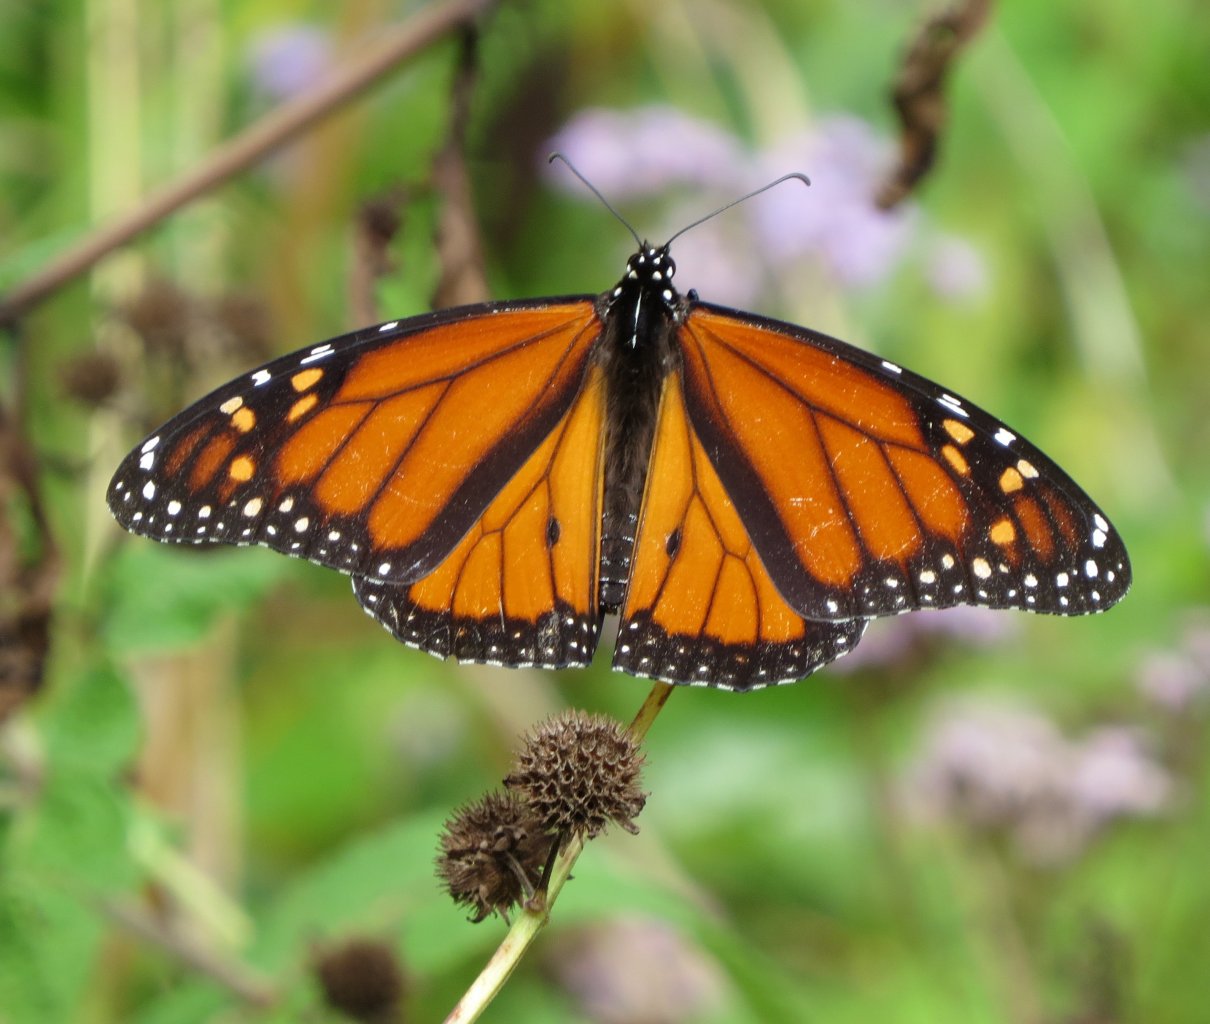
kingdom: Animalia
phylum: Arthropoda
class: Insecta
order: Lepidoptera
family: Nymphalidae
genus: Danaus
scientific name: Danaus plexippus
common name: Monarch
